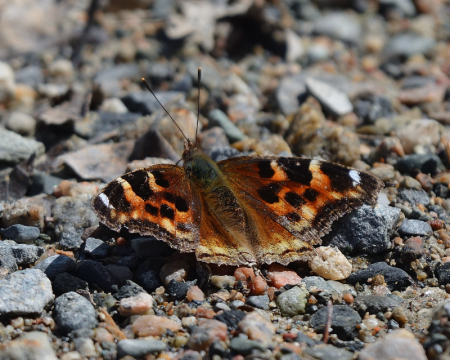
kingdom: Animalia
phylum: Arthropoda
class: Insecta
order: Lepidoptera
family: Nymphalidae
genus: Polygonia
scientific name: Polygonia vaualbum
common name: Compton Tortoiseshell
